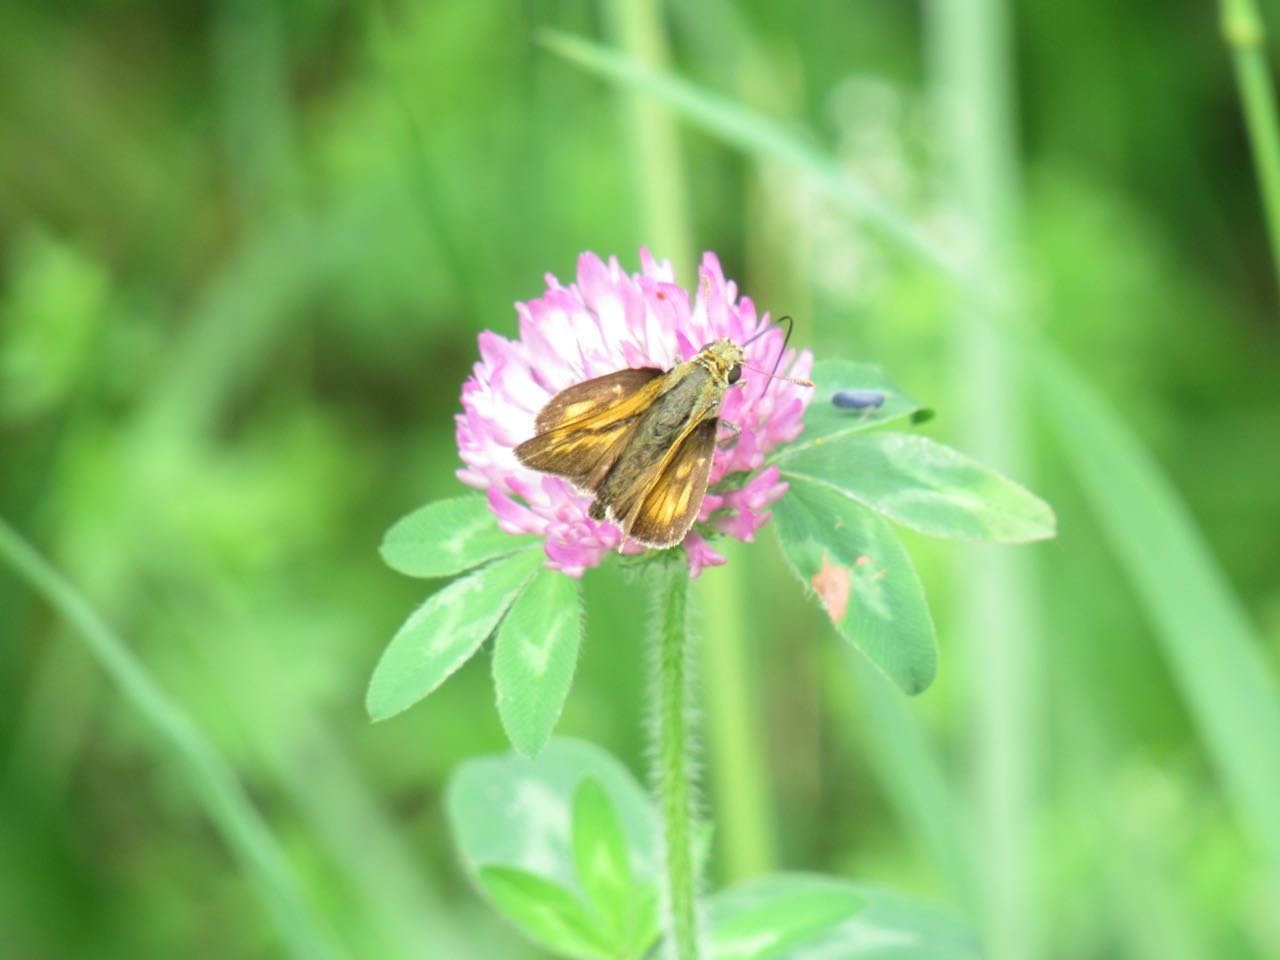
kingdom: Animalia
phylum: Arthropoda
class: Insecta
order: Lepidoptera
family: Hesperiidae
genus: Polites
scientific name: Polites
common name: Long Dash Skipper
